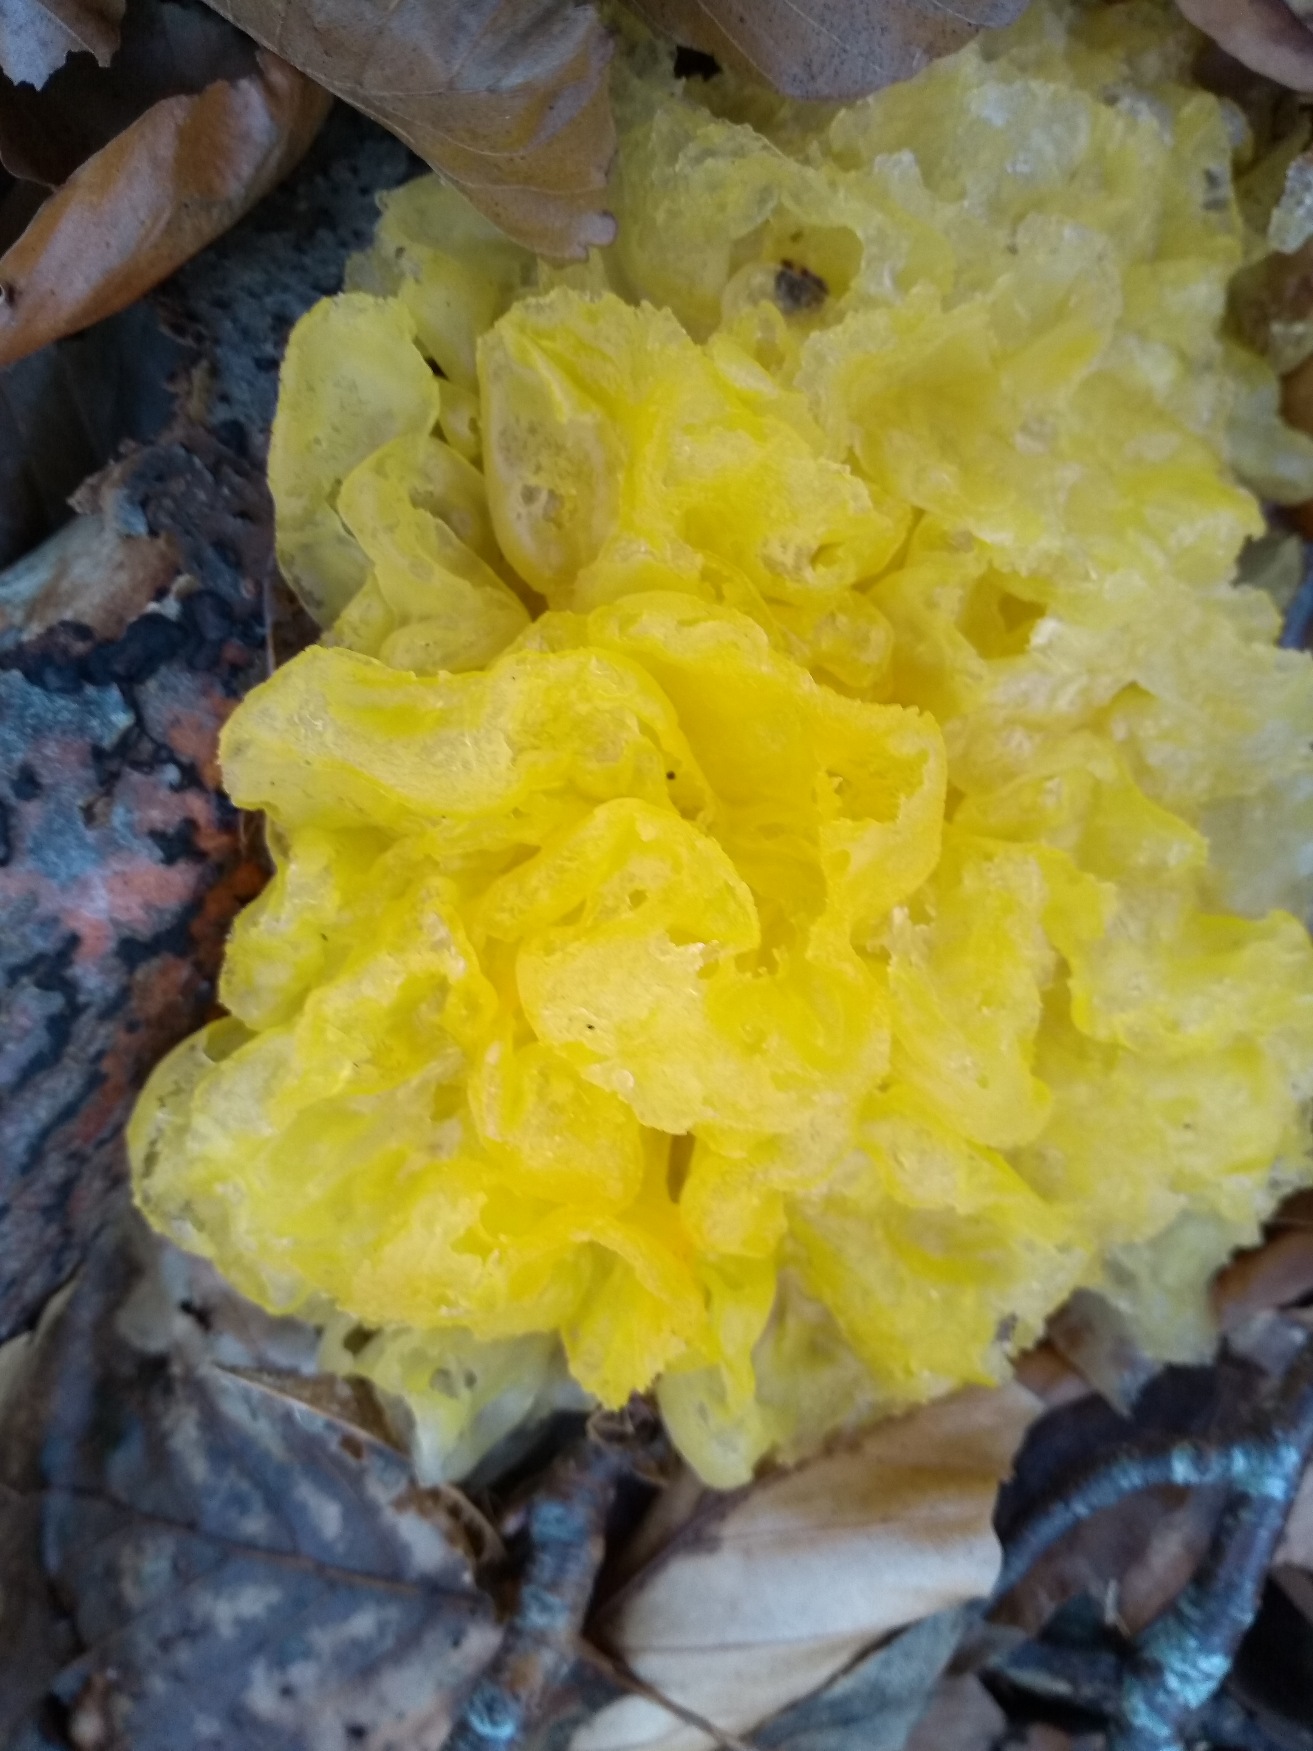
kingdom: Fungi
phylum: Basidiomycota
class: Tremellomycetes
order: Tremellales
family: Tremellaceae
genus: Tremella
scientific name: Tremella mesenterica
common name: Gul bævresvamp
